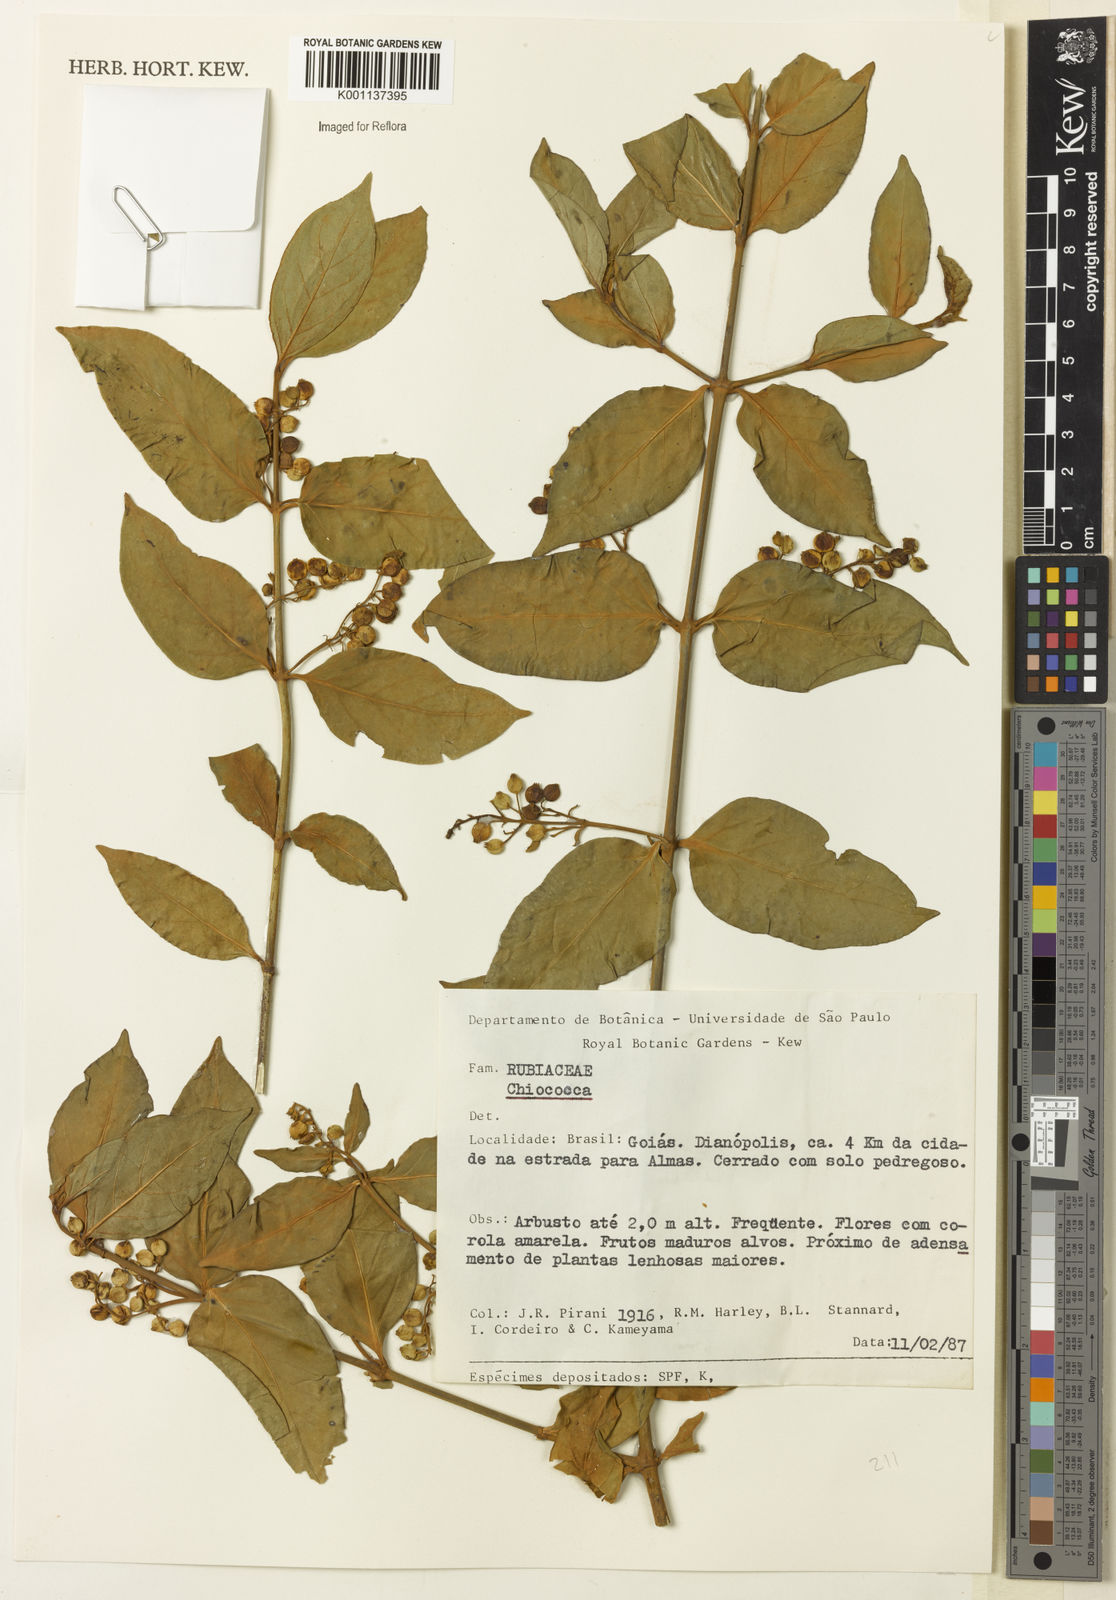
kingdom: Plantae
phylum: Tracheophyta
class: Magnoliopsida
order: Gentianales
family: Rubiaceae
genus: Chiococca
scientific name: Chiococca
